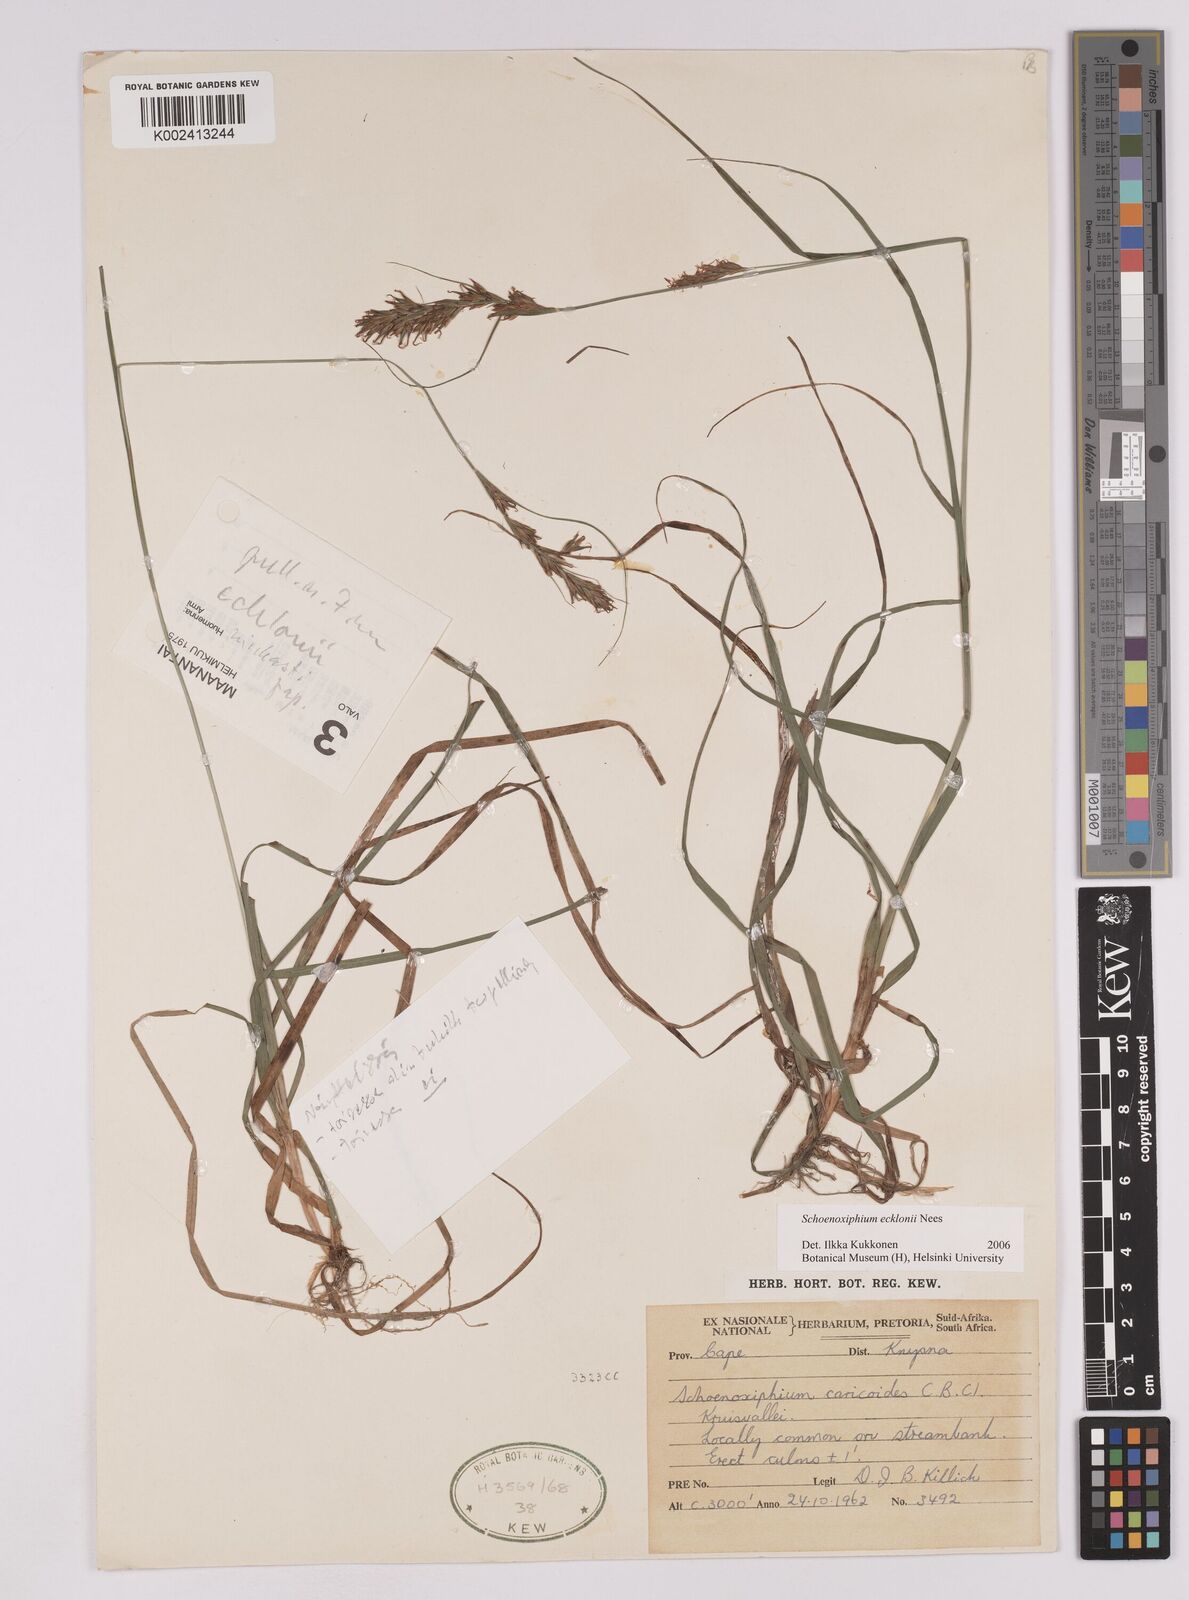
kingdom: Plantae
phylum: Tracheophyta
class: Liliopsida
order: Poales
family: Cyperaceae
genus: Carex
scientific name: Carex capensis
